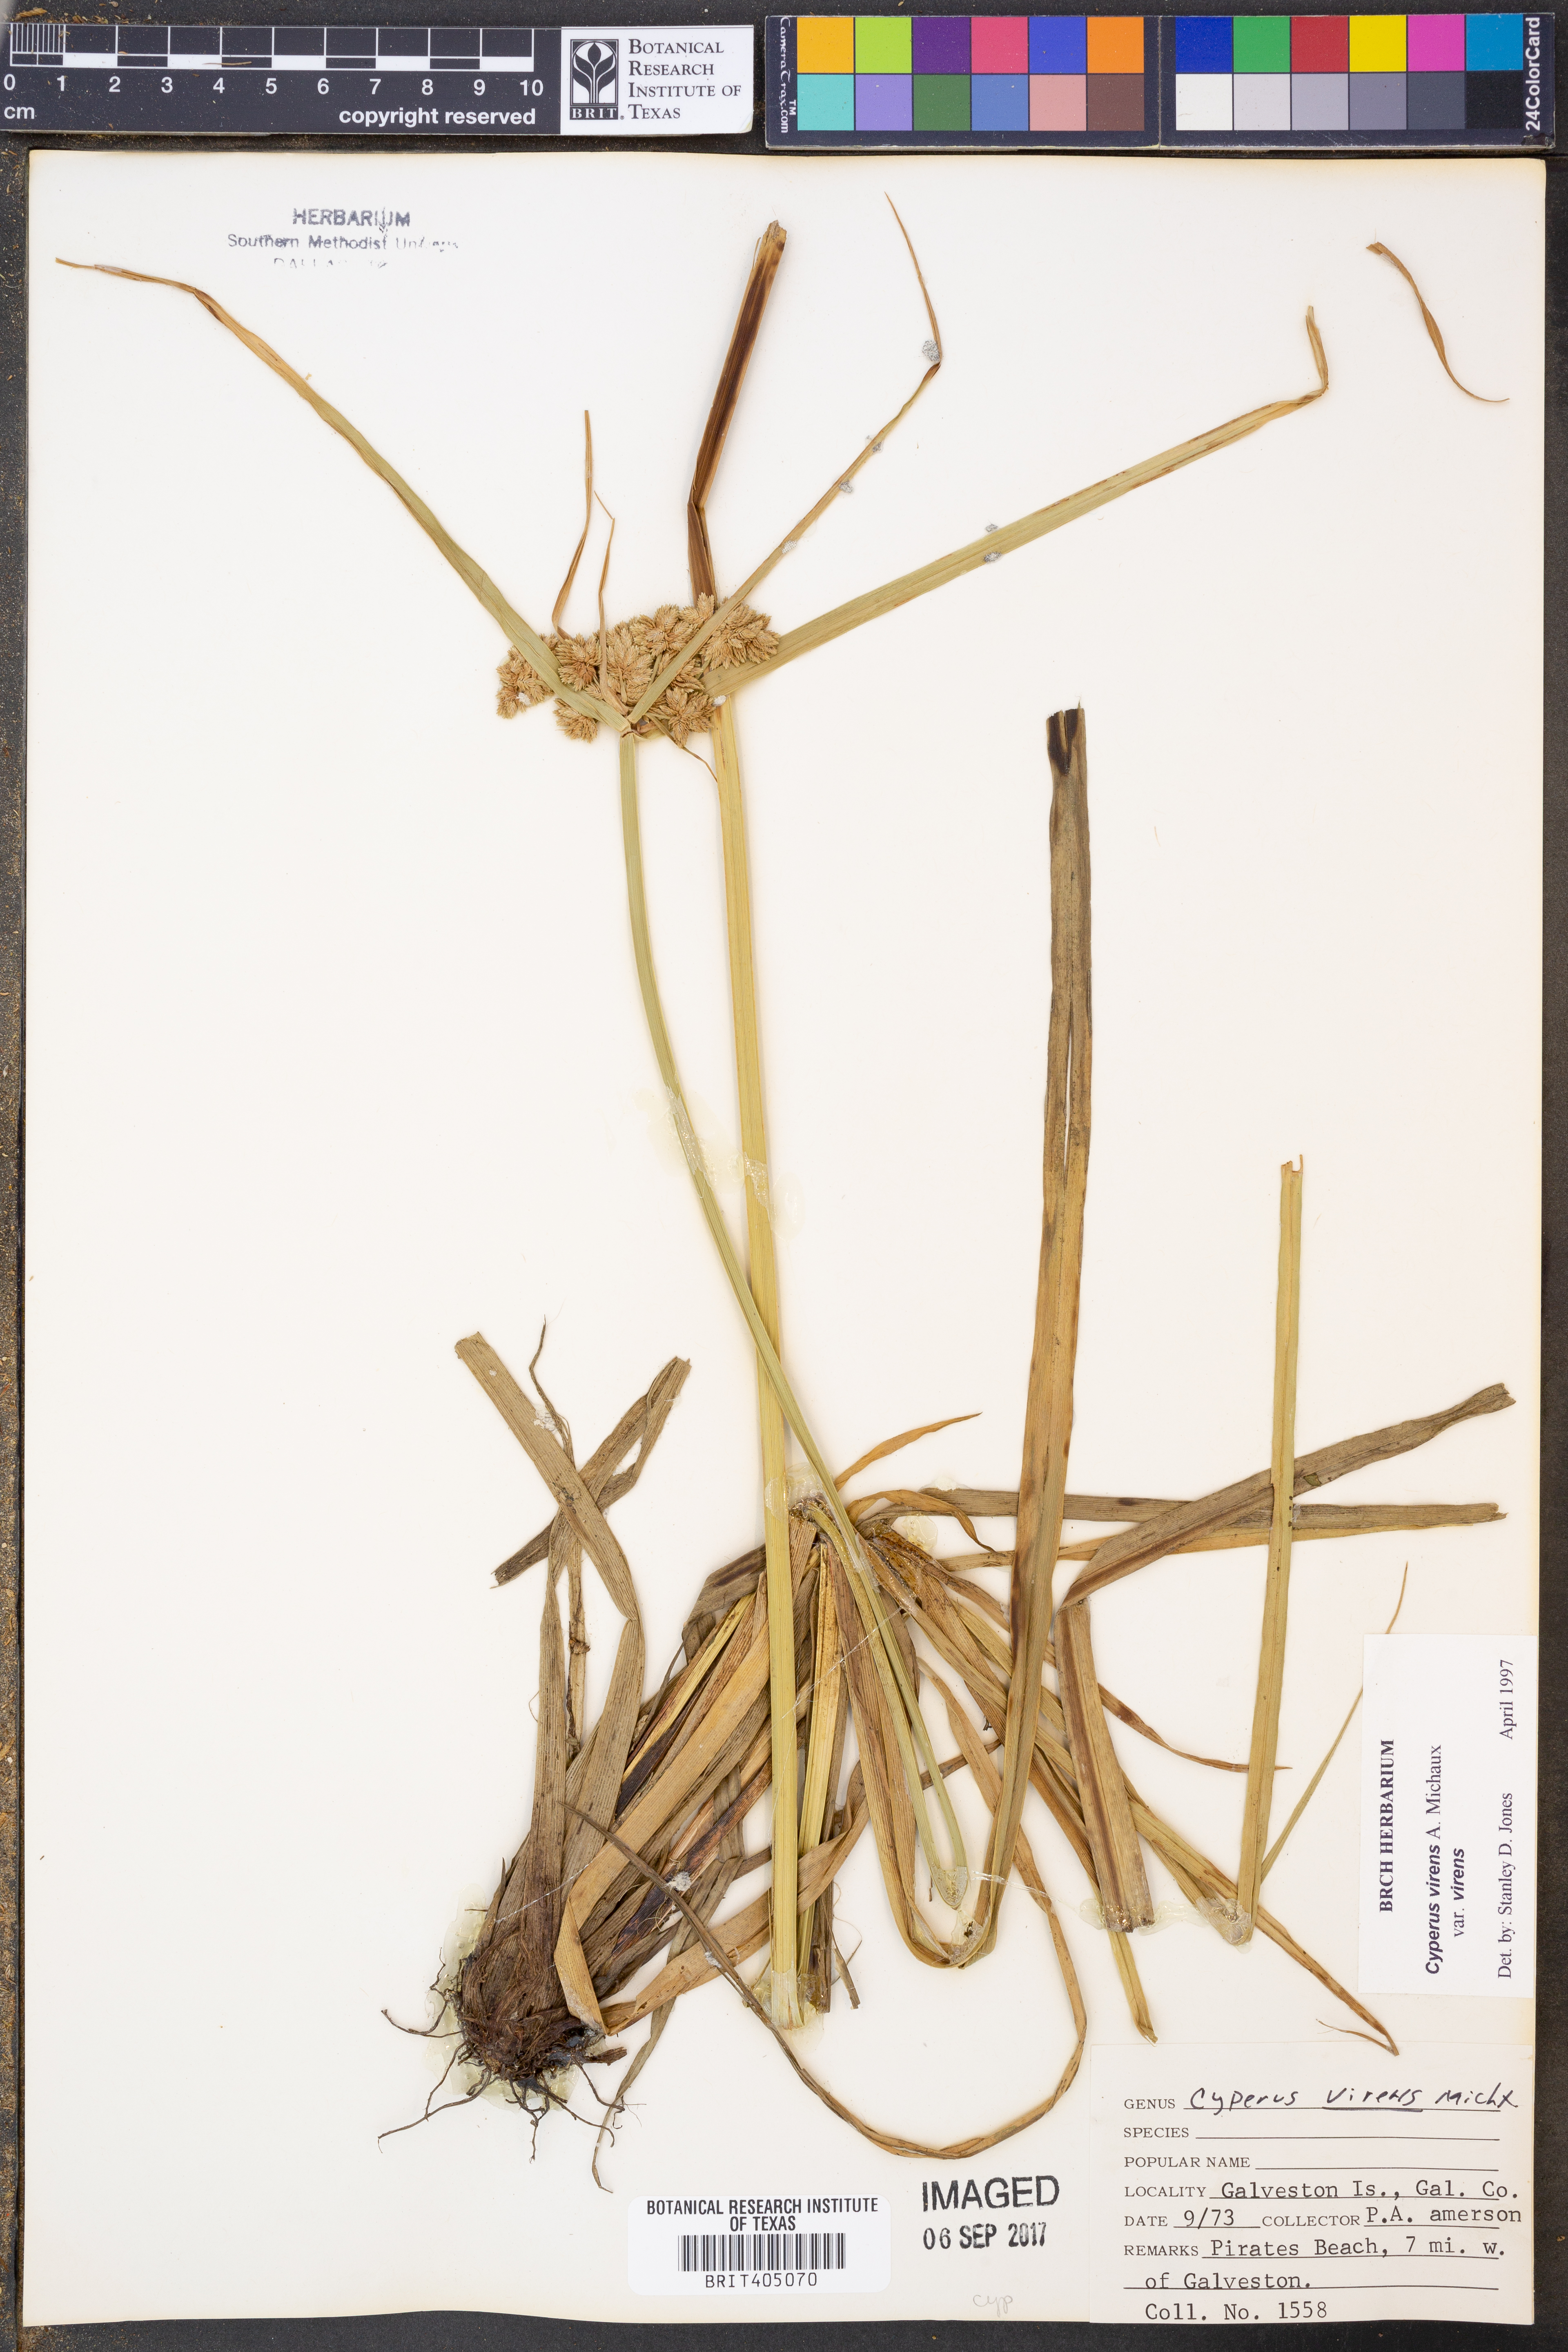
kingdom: Plantae
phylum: Tracheophyta
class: Liliopsida
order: Poales
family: Cyperaceae
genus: Cyperus
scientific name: Cyperus virens
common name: Green flatsedge
